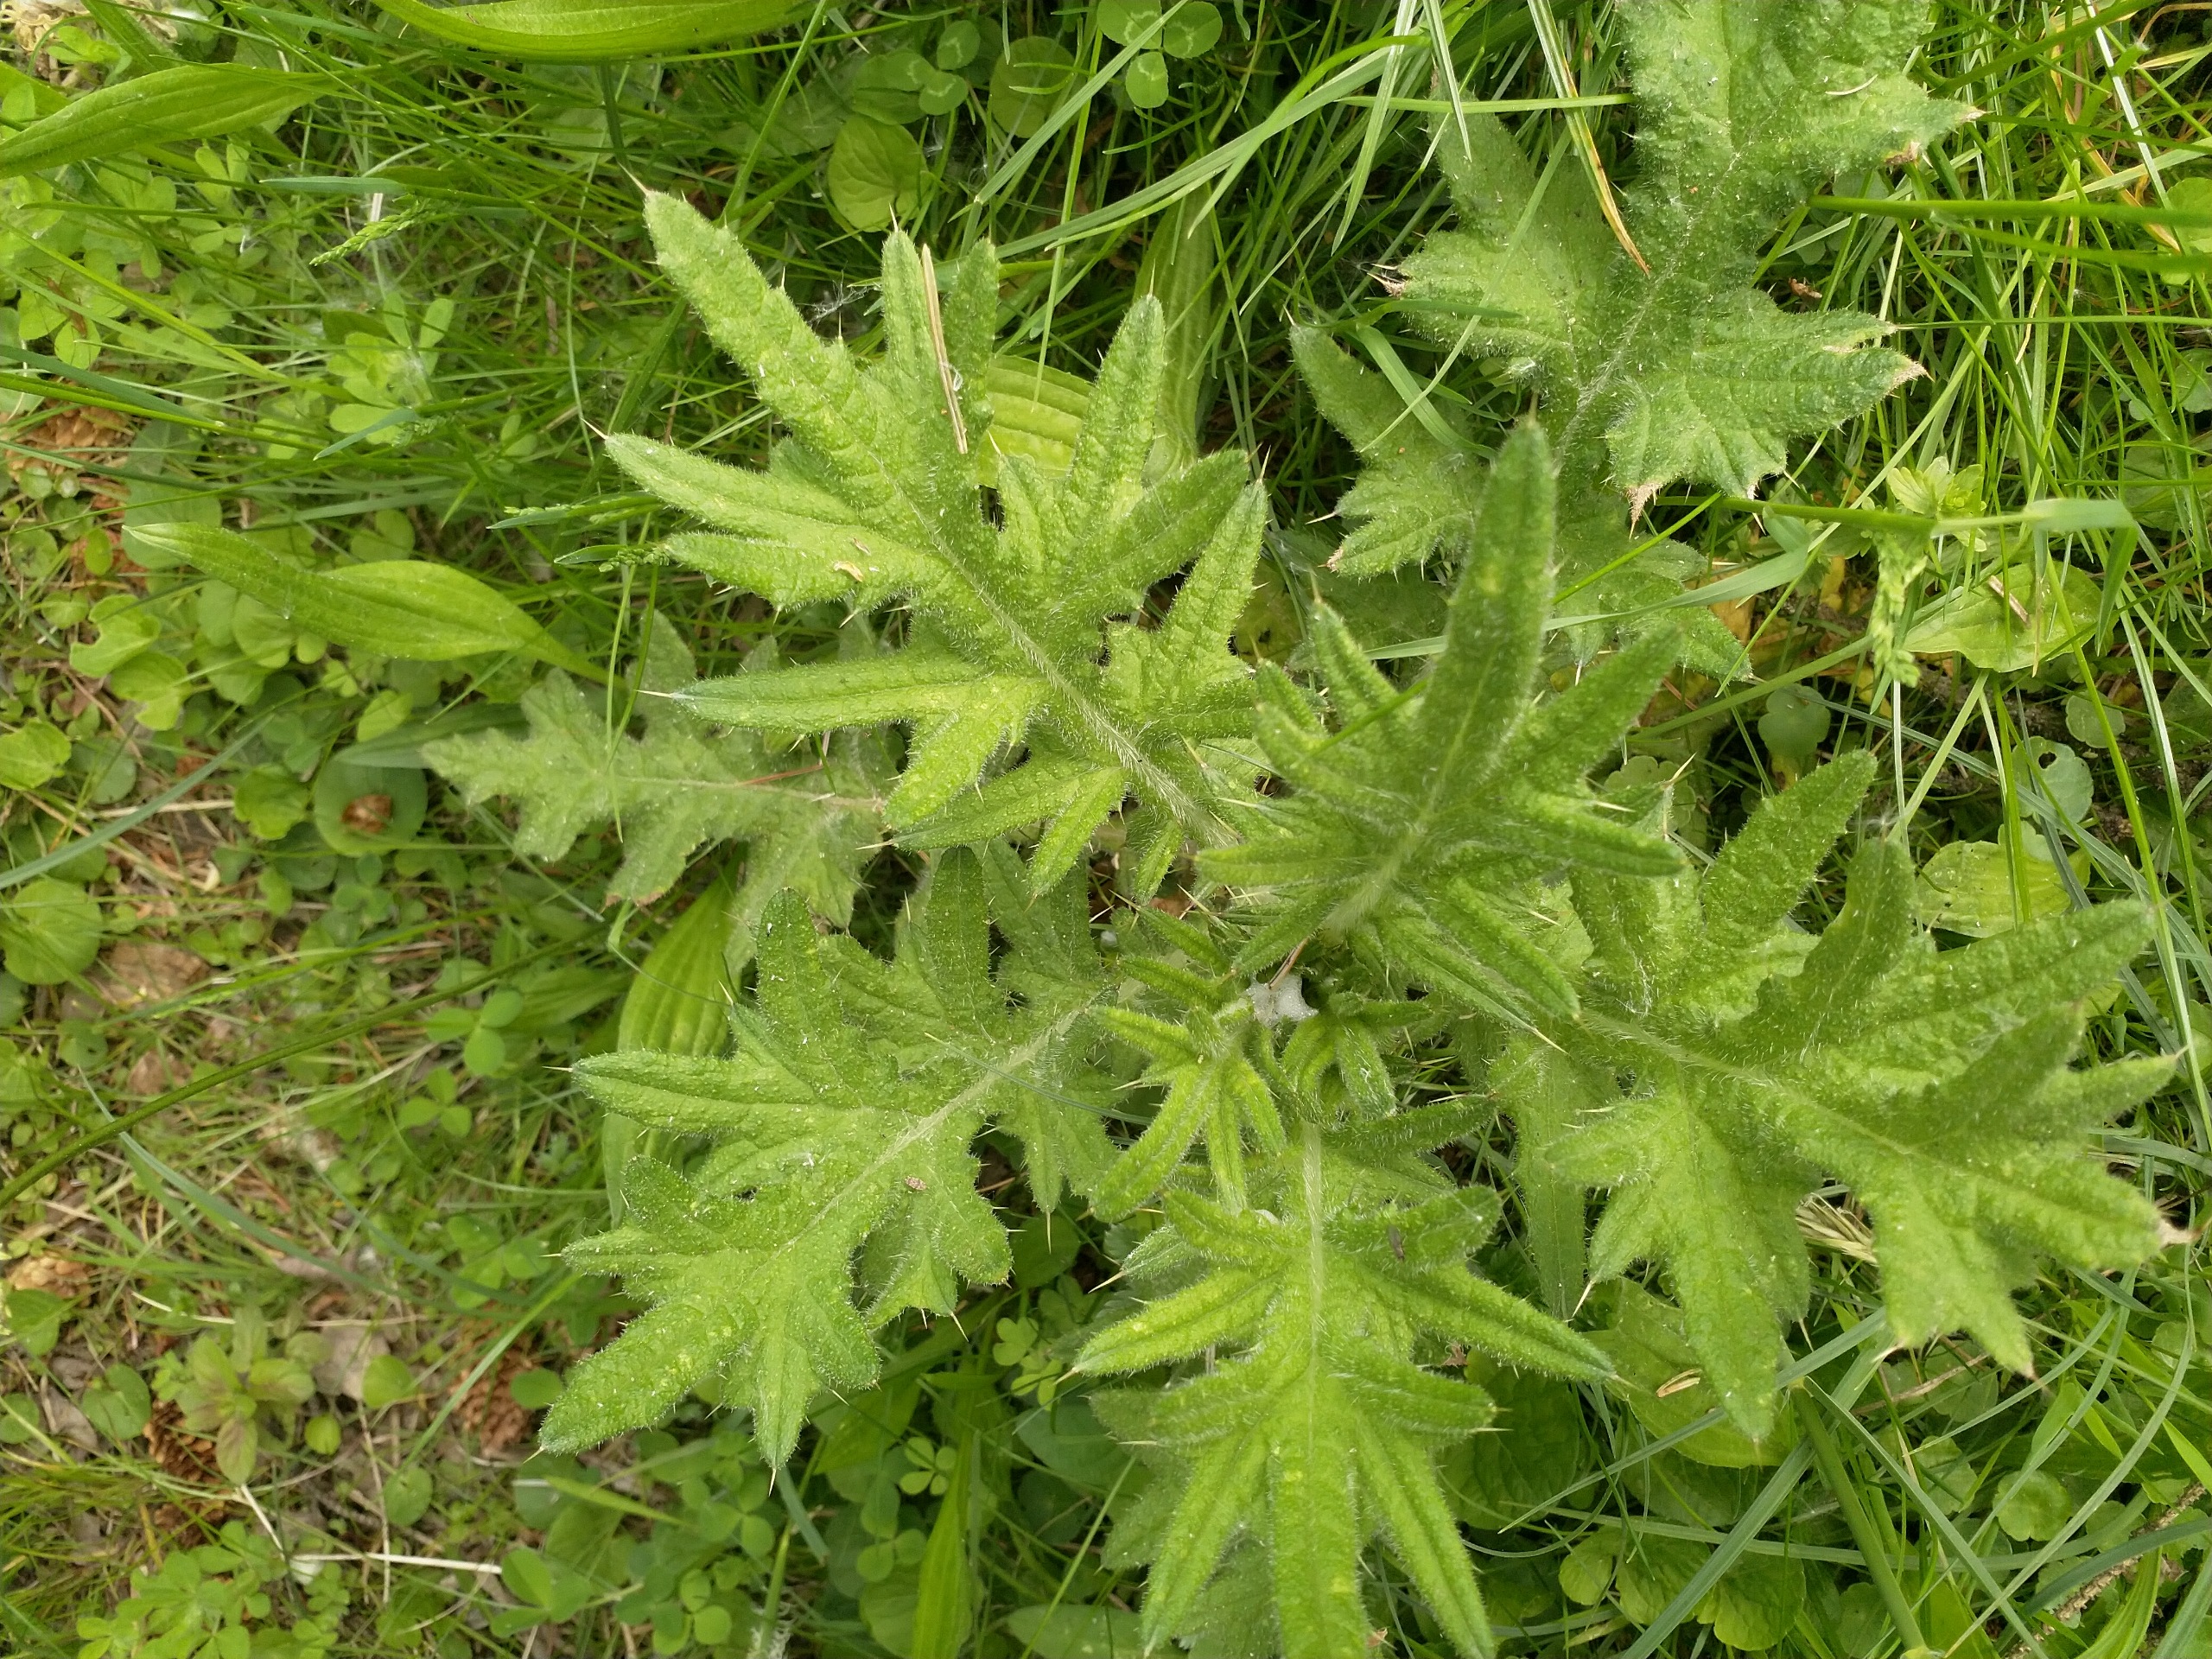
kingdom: Plantae
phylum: Tracheophyta
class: Magnoliopsida
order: Asterales
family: Asteraceae
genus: Cirsium
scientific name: Cirsium vulgare
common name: Horse-tidsel
